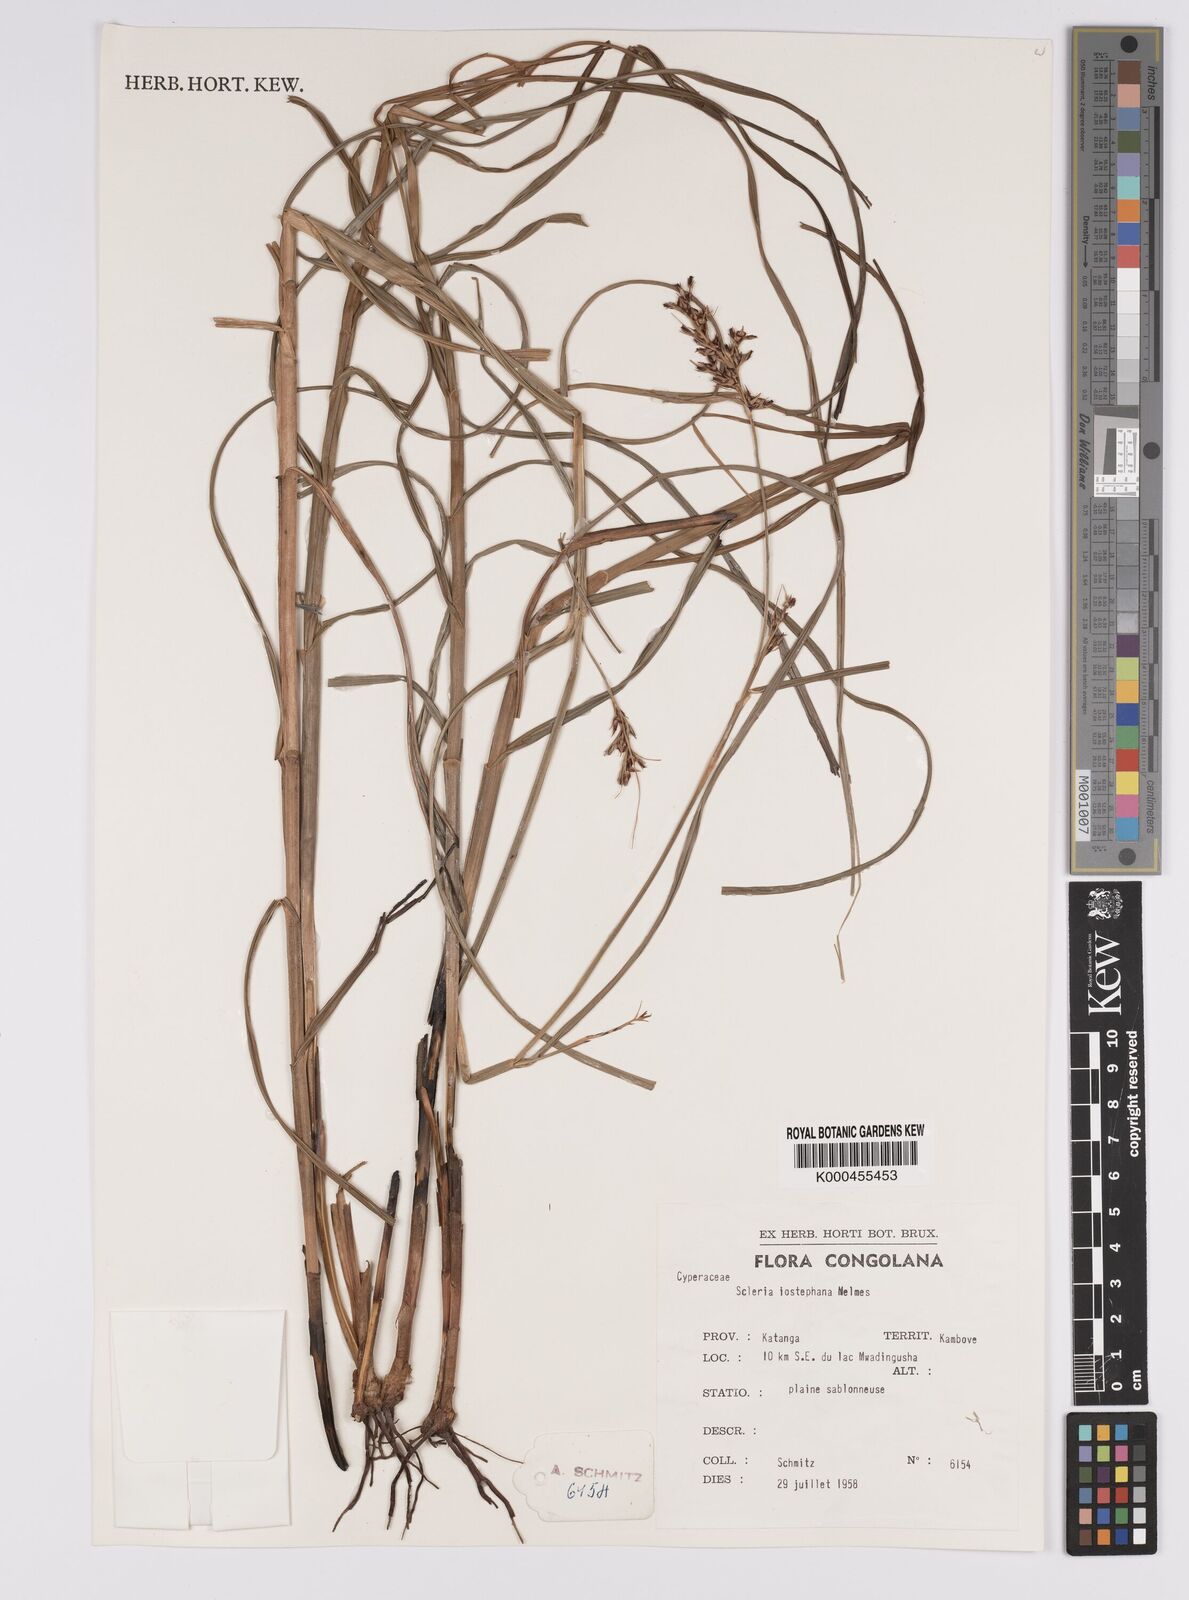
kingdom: Plantae
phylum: Tracheophyta
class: Liliopsida
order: Poales
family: Cyperaceae
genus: Scleria
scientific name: Scleria iostephana
